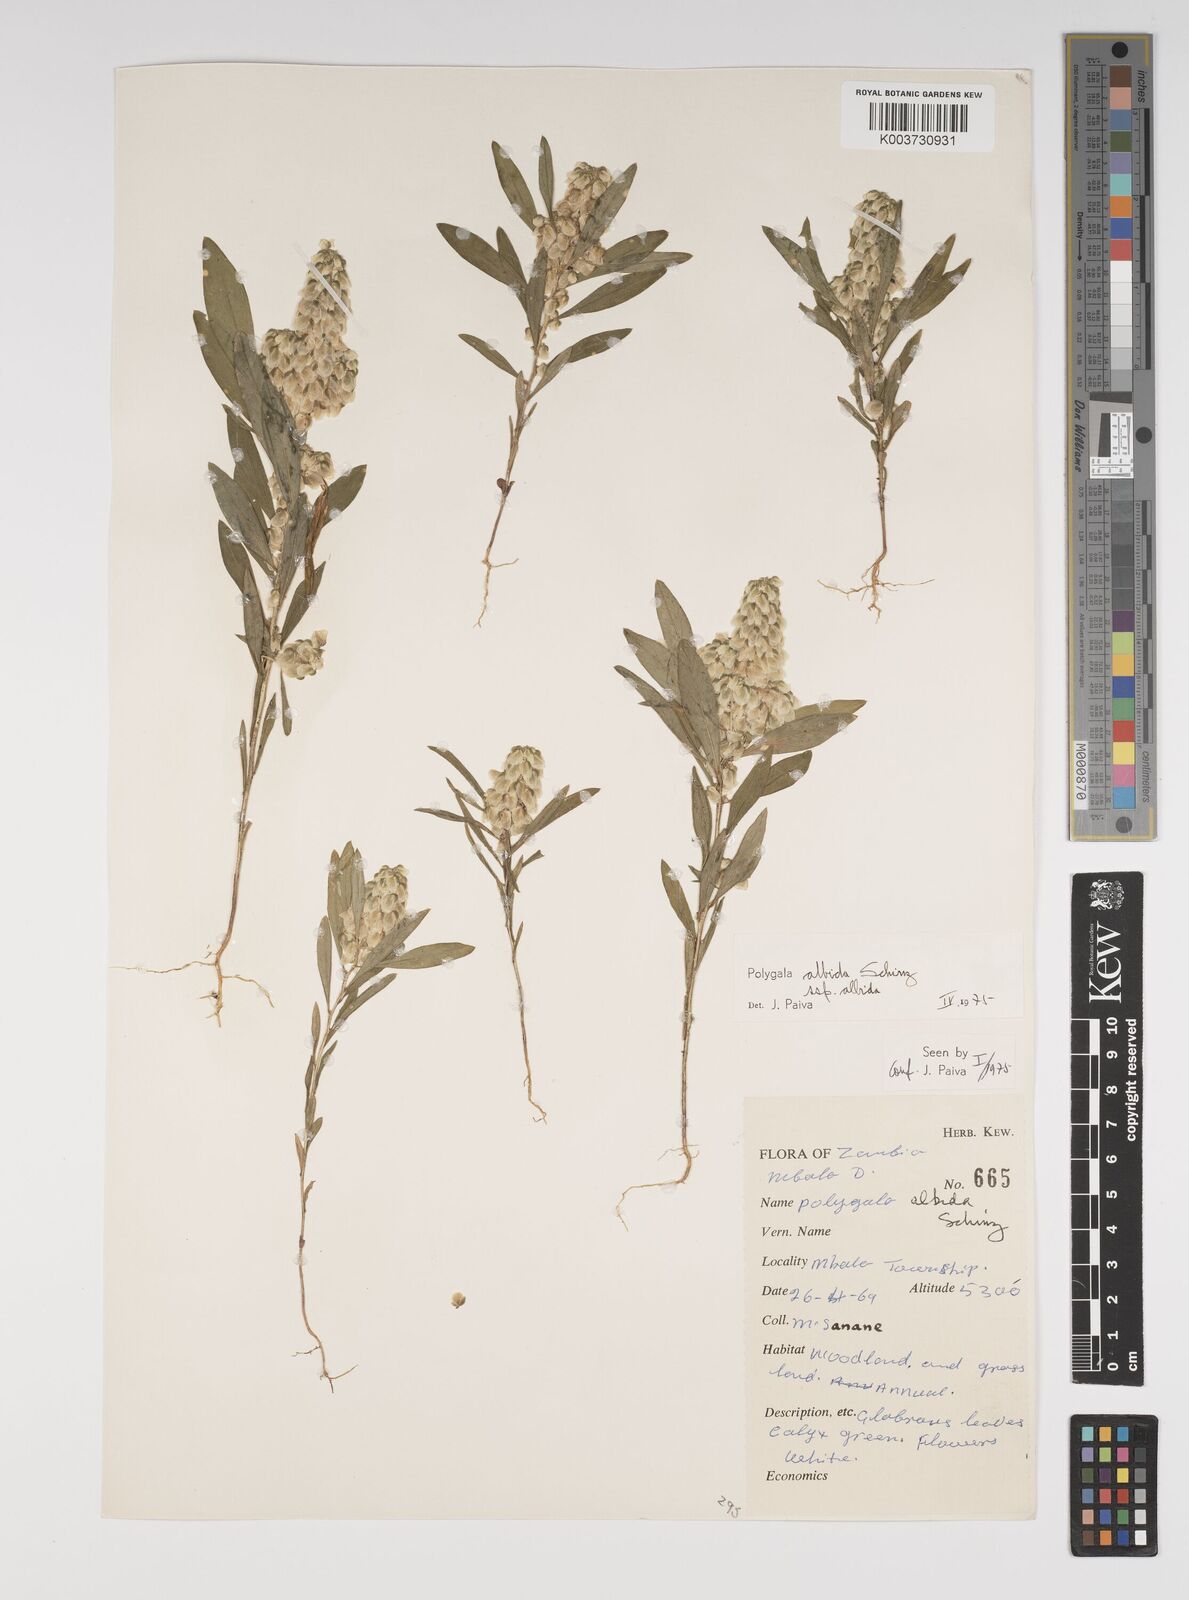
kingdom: Plantae
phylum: Tracheophyta
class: Magnoliopsida
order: Fabales
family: Polygalaceae
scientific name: Polygalaceae
